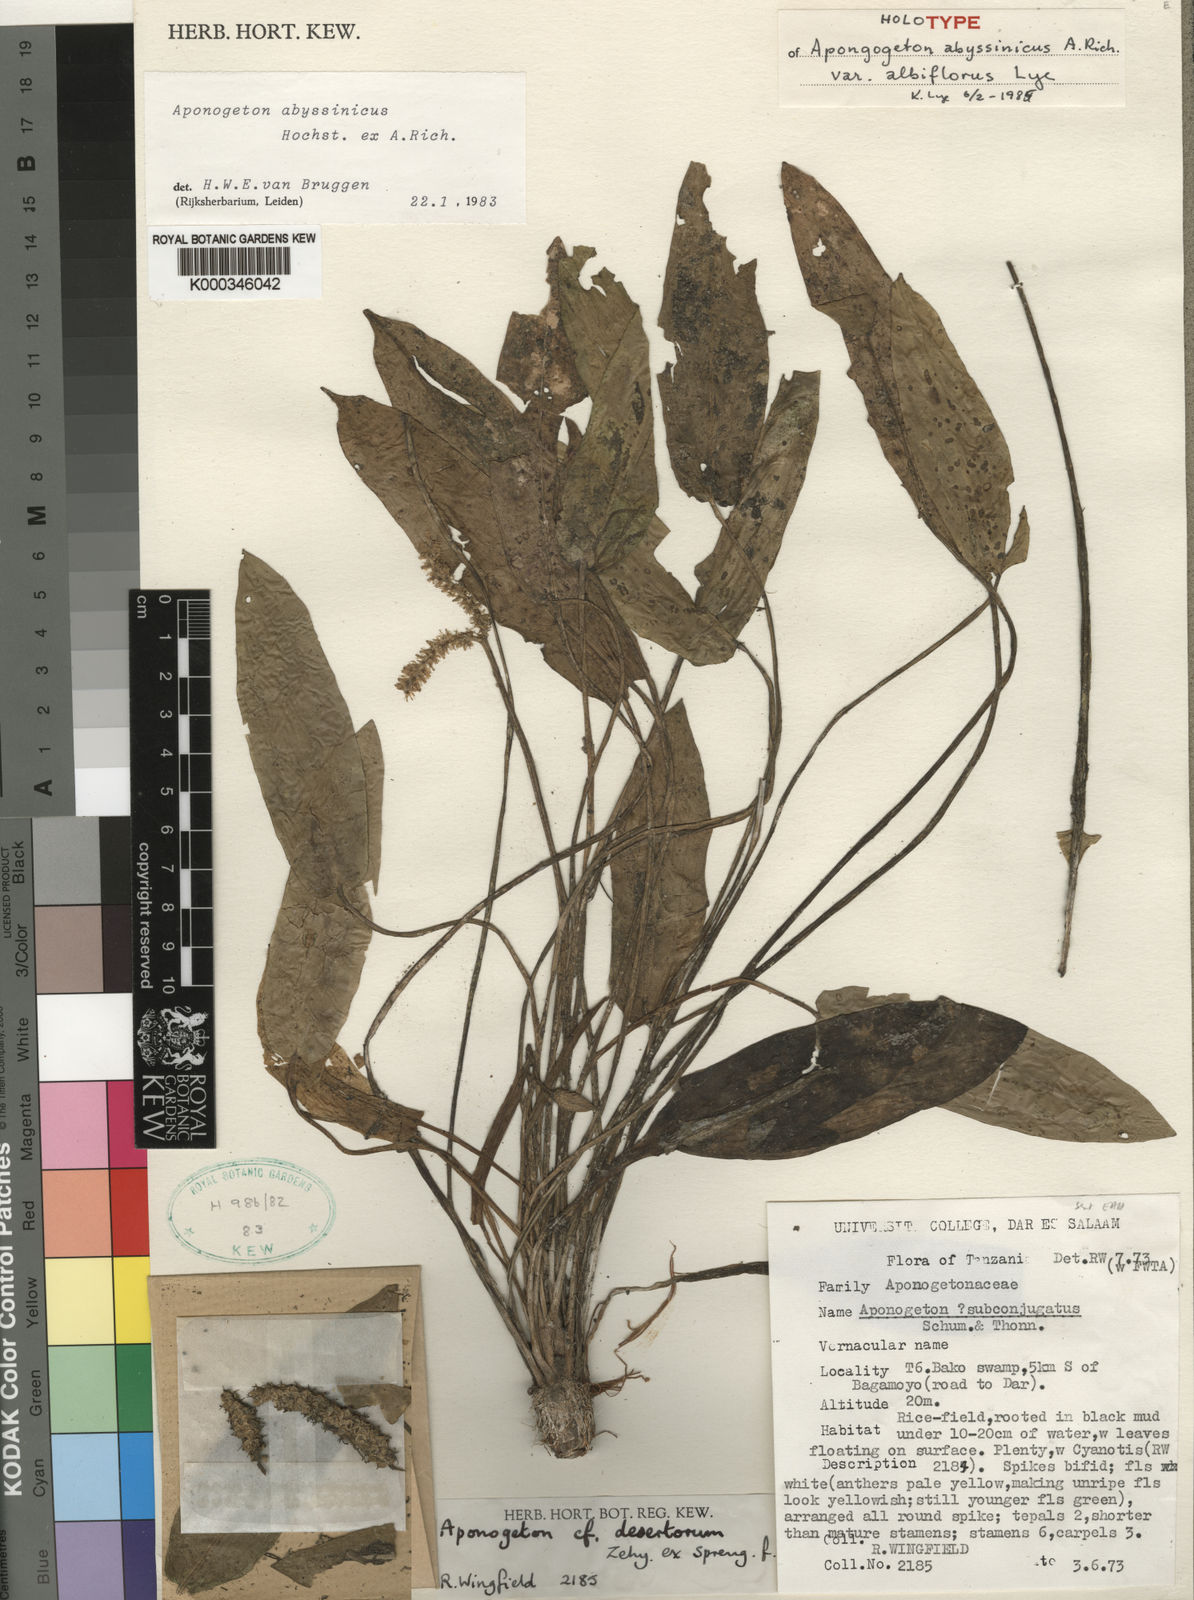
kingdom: Plantae
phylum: Tracheophyta
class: Liliopsida
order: Alismatales
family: Aponogetonaceae
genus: Aponogeton
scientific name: Aponogeton abyssinicus
